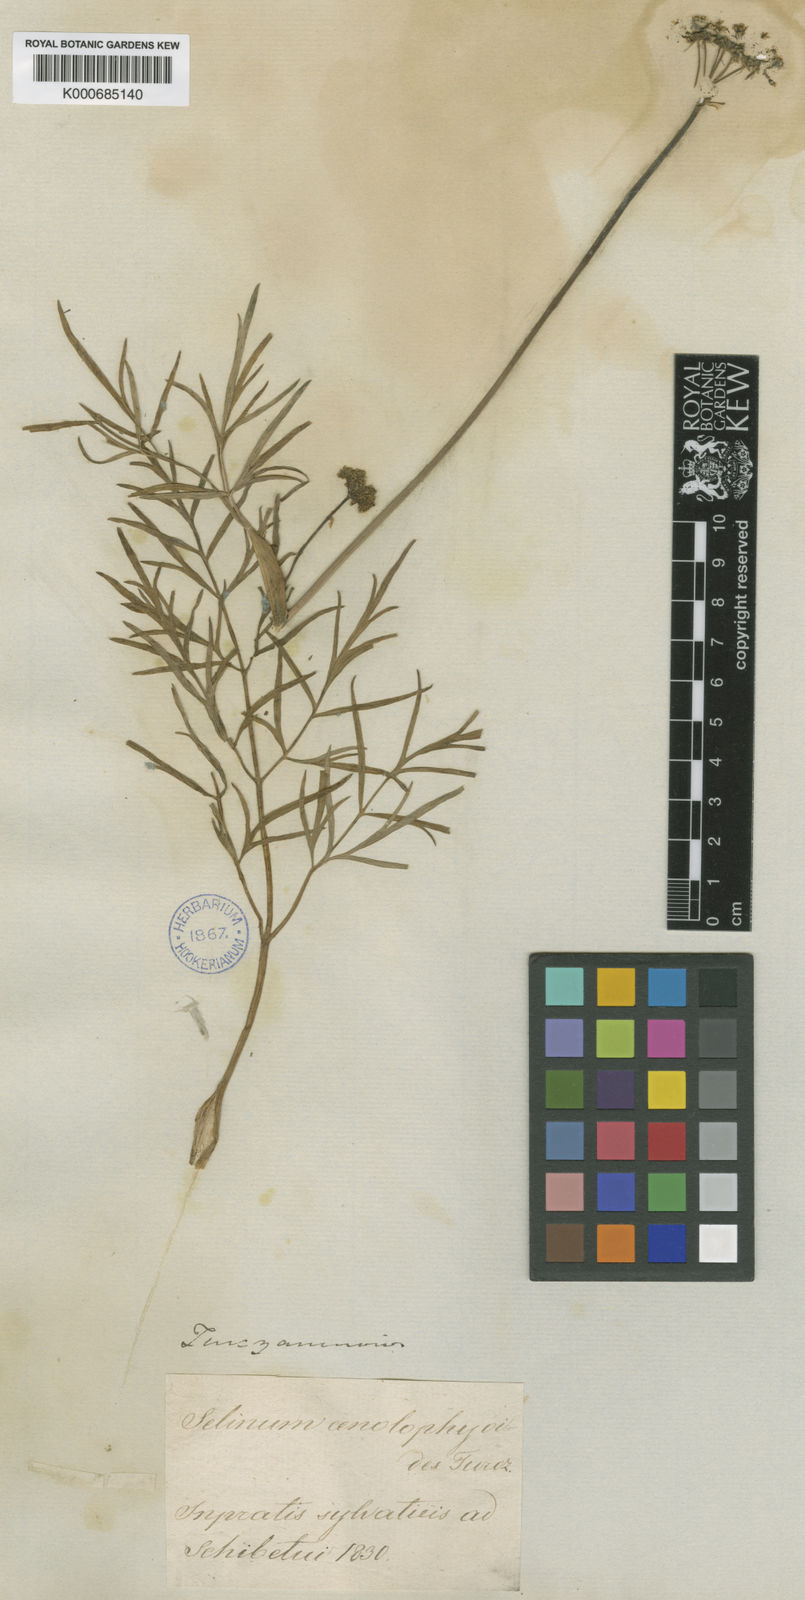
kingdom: Plantae
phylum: Tracheophyta
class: Magnoliopsida
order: Apiales
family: Apiaceae
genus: Conioselinum
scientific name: Conioselinum longifolium
